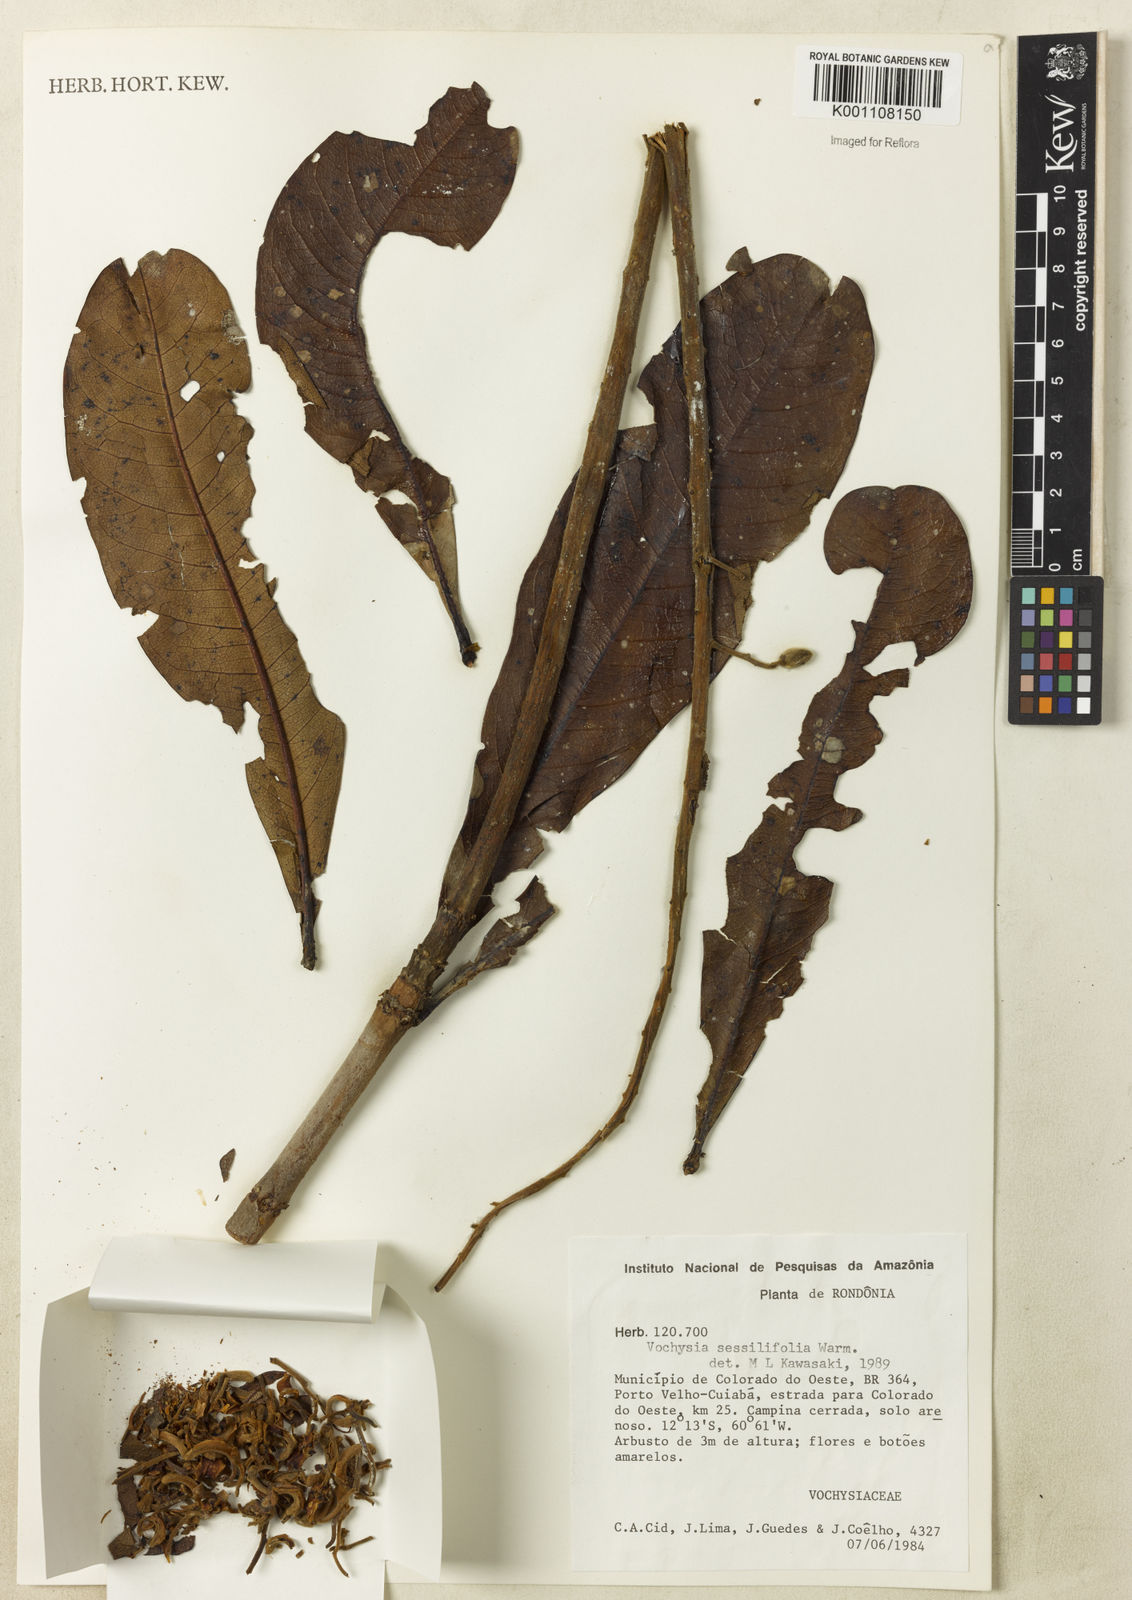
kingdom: Plantae
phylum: Tracheophyta
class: Magnoliopsida
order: Myrtales
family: Vochysiaceae
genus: Vochysia
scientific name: Vochysia sessilifolia
